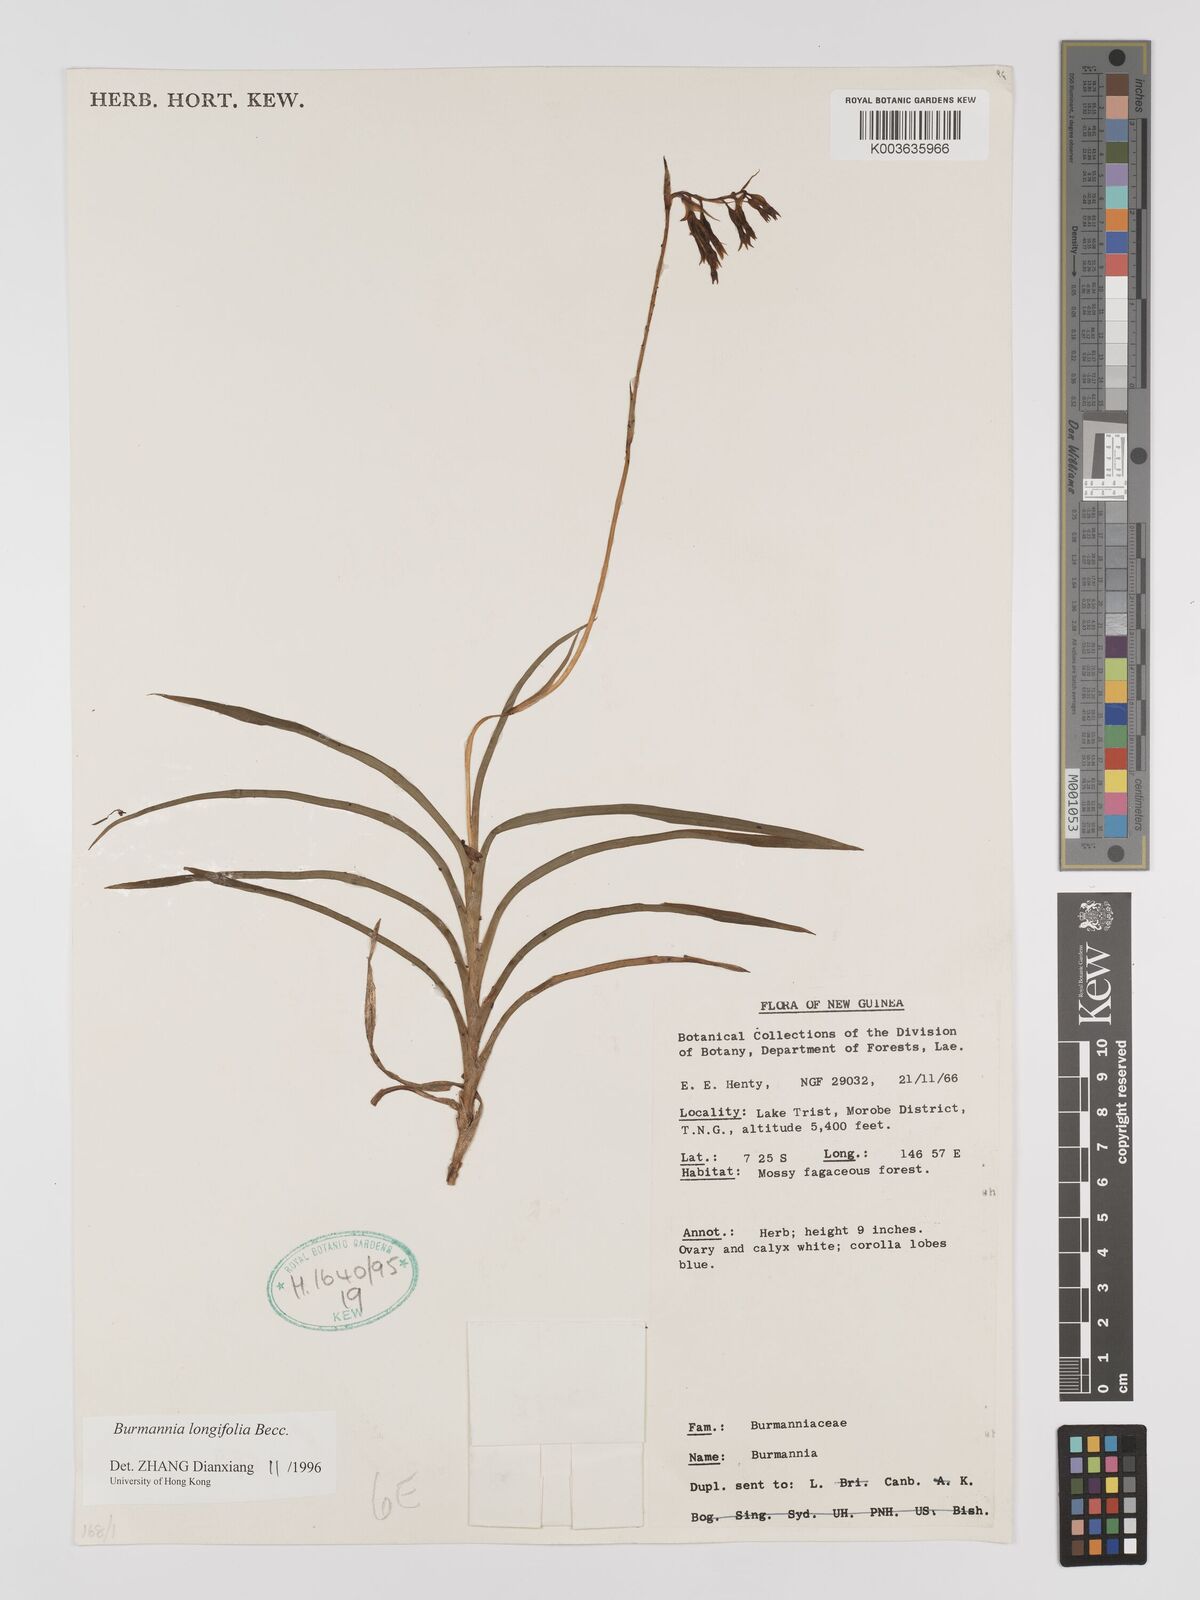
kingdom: Plantae
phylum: Tracheophyta
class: Liliopsida
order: Dioscoreales
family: Burmanniaceae
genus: Burmannia
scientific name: Burmannia longifolia
